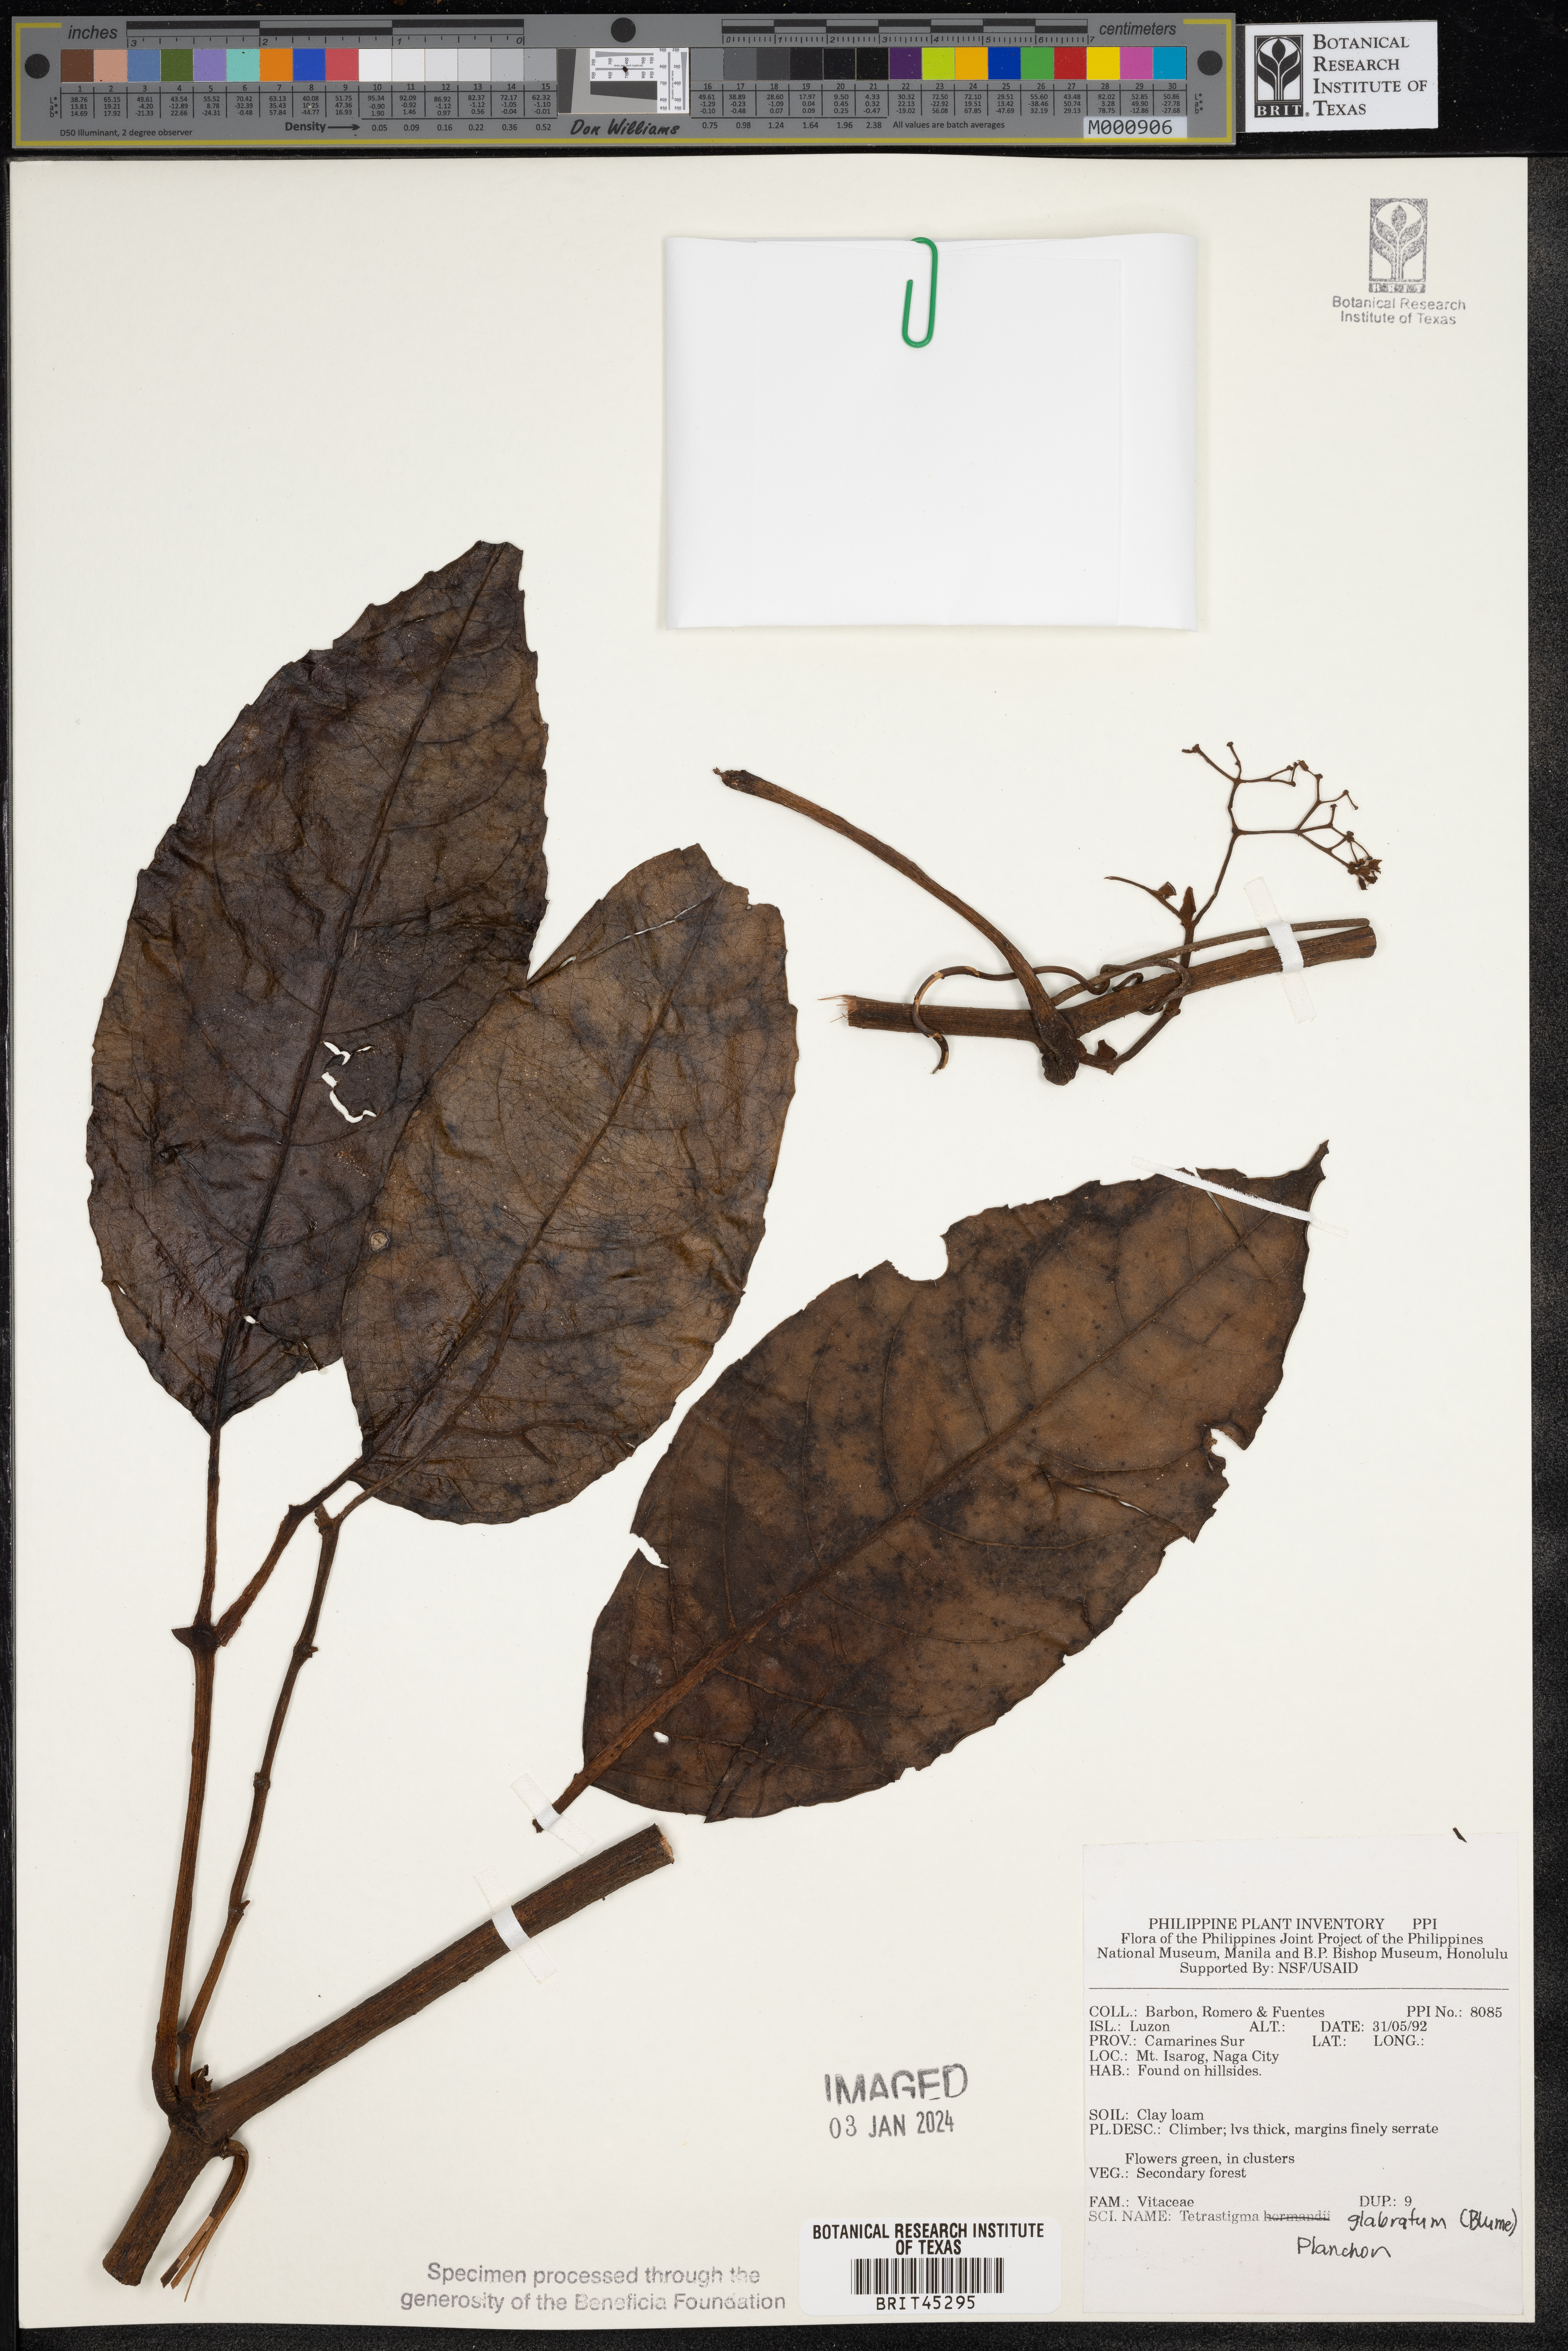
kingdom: Plantae
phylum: Tracheophyta
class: Magnoliopsida
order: Vitales
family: Vitaceae
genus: Tetrastigma
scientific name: Tetrastigma serrulatum
